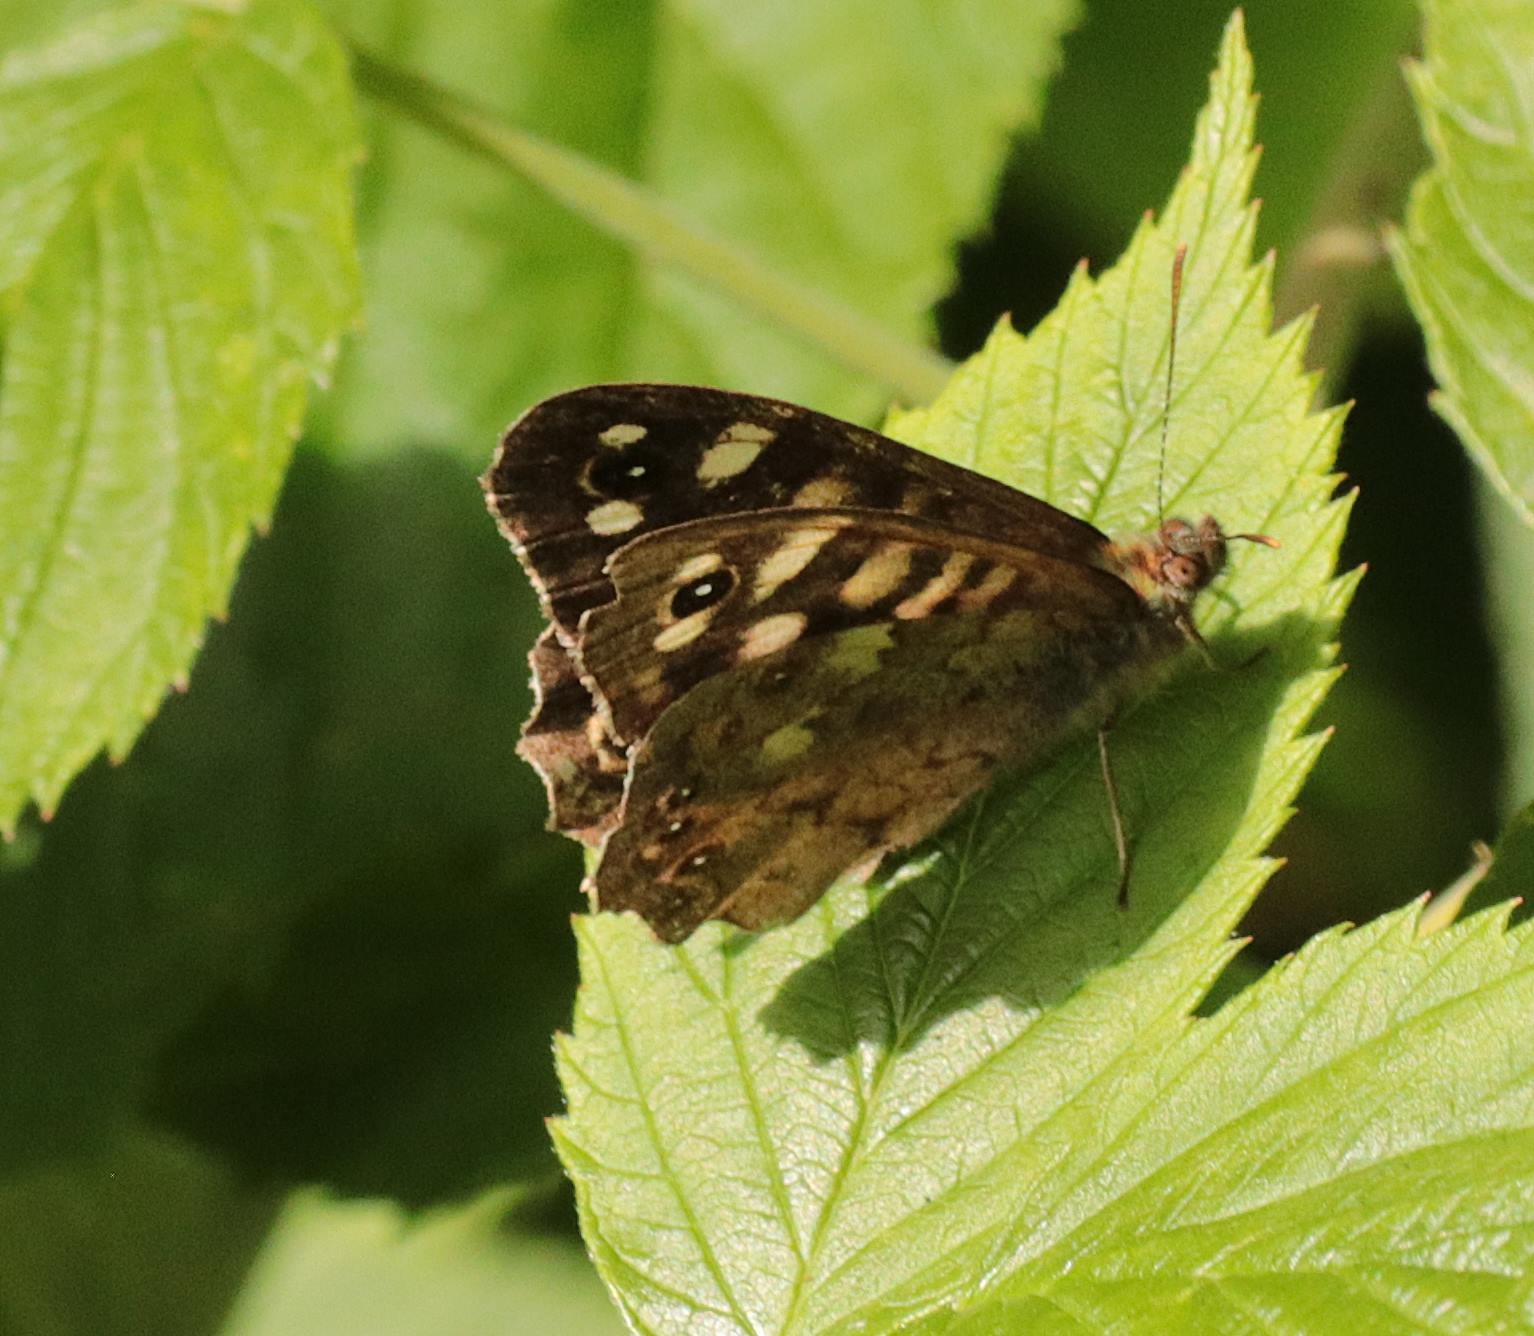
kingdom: Animalia
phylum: Arthropoda
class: Insecta
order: Lepidoptera
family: Nymphalidae
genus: Pararge
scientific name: Pararge aegeria
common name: Skovrandøje
